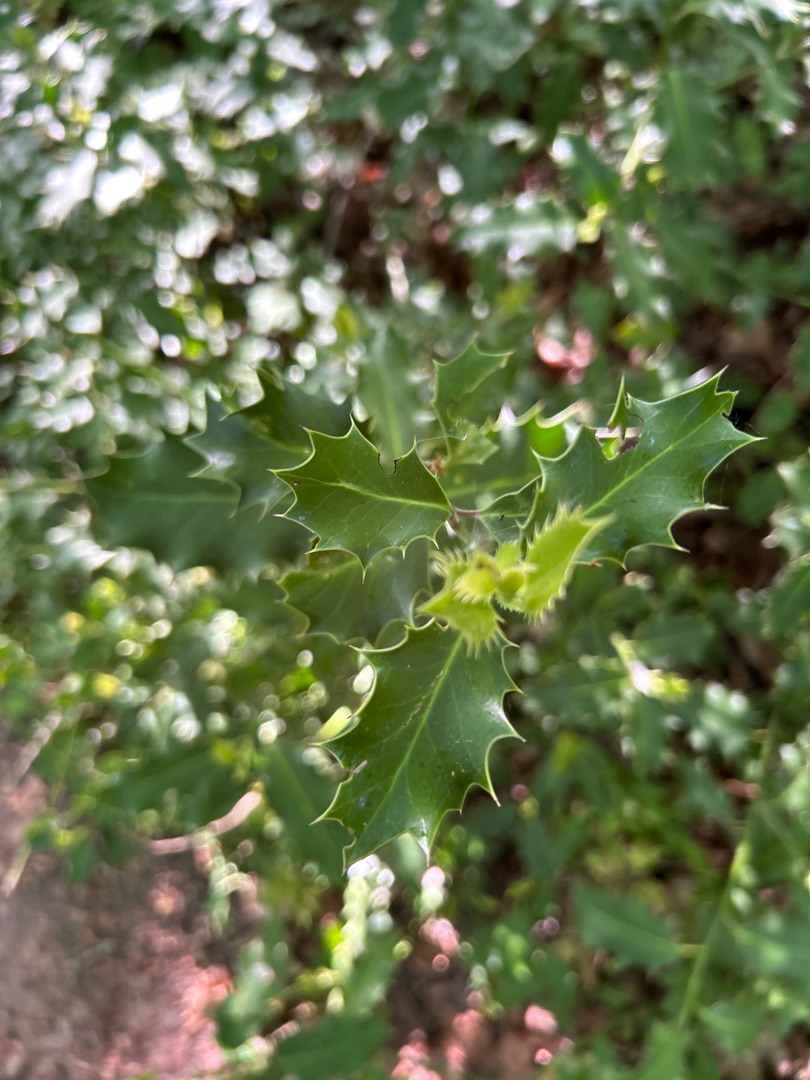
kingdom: Plantae
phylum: Tracheophyta
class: Magnoliopsida
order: Aquifoliales
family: Aquifoliaceae
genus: Ilex
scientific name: Ilex aquifolium
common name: Kristtorn
